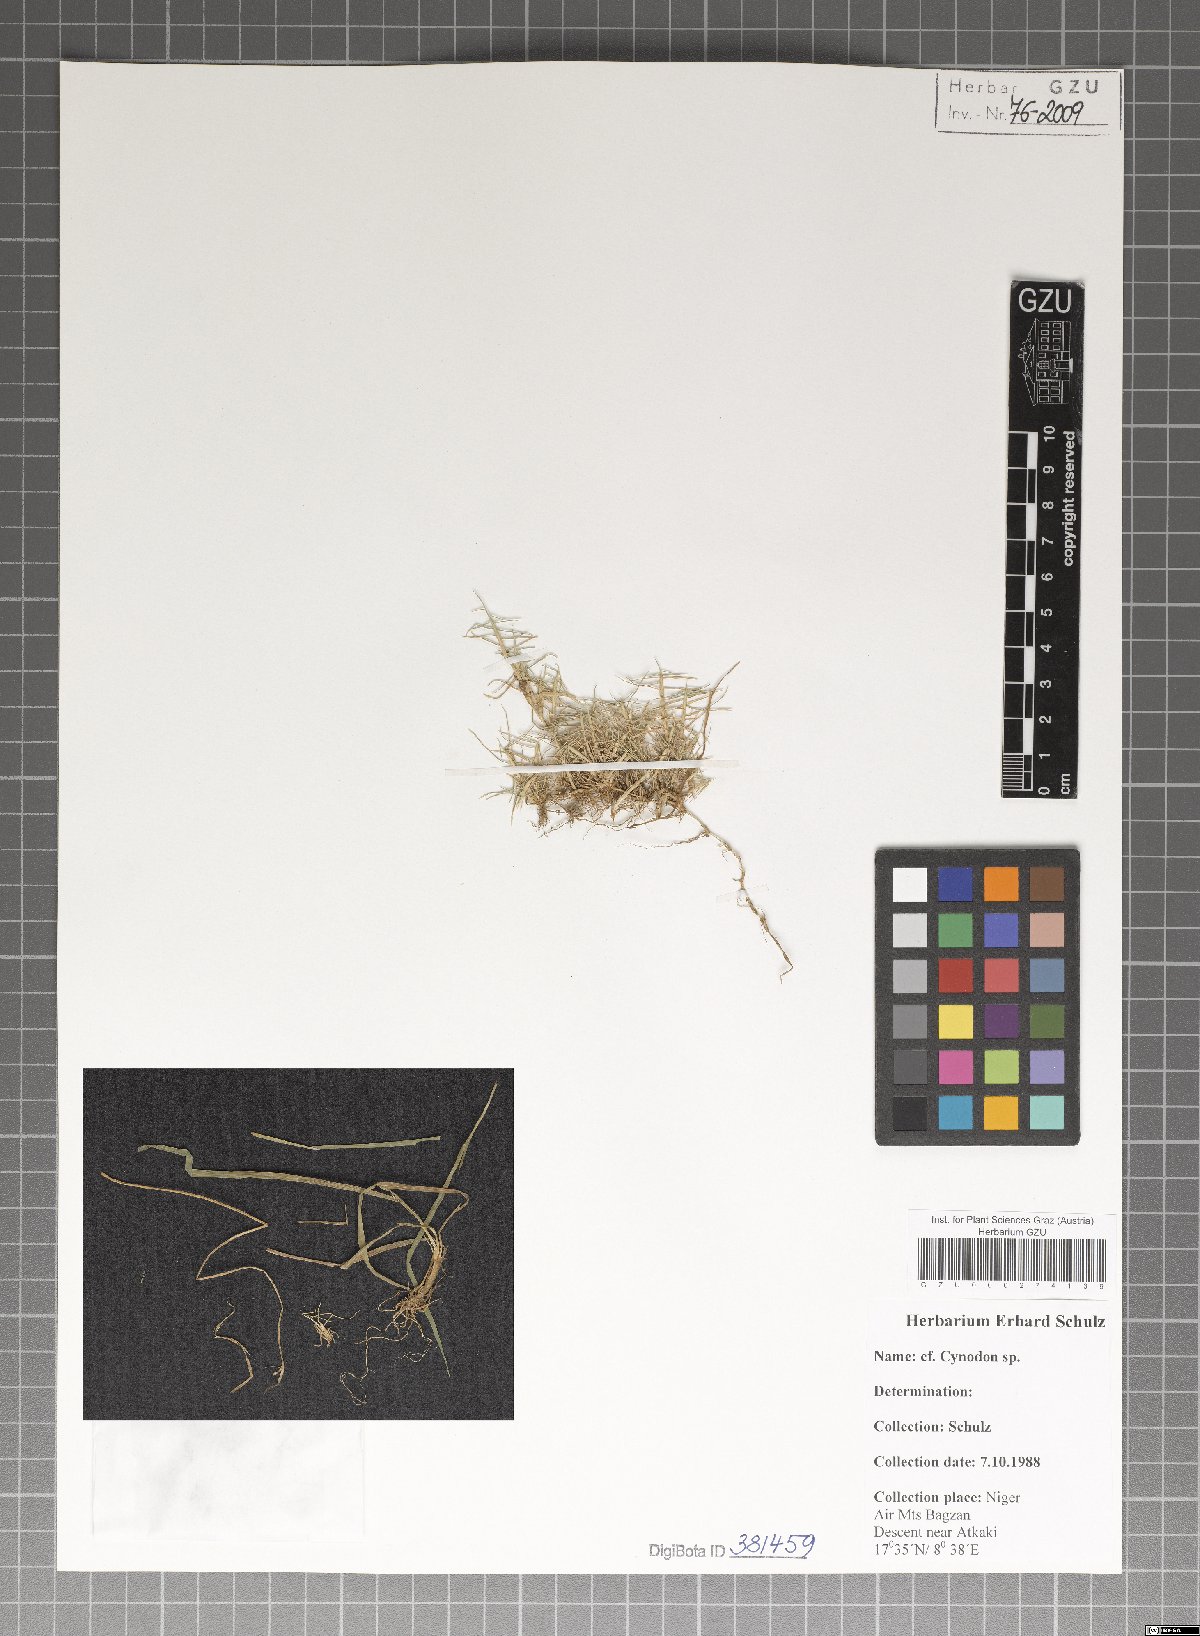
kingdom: Plantae
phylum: Tracheophyta
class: Liliopsida
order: Poales
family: Poaceae
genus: Cynodon
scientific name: Cynodon
